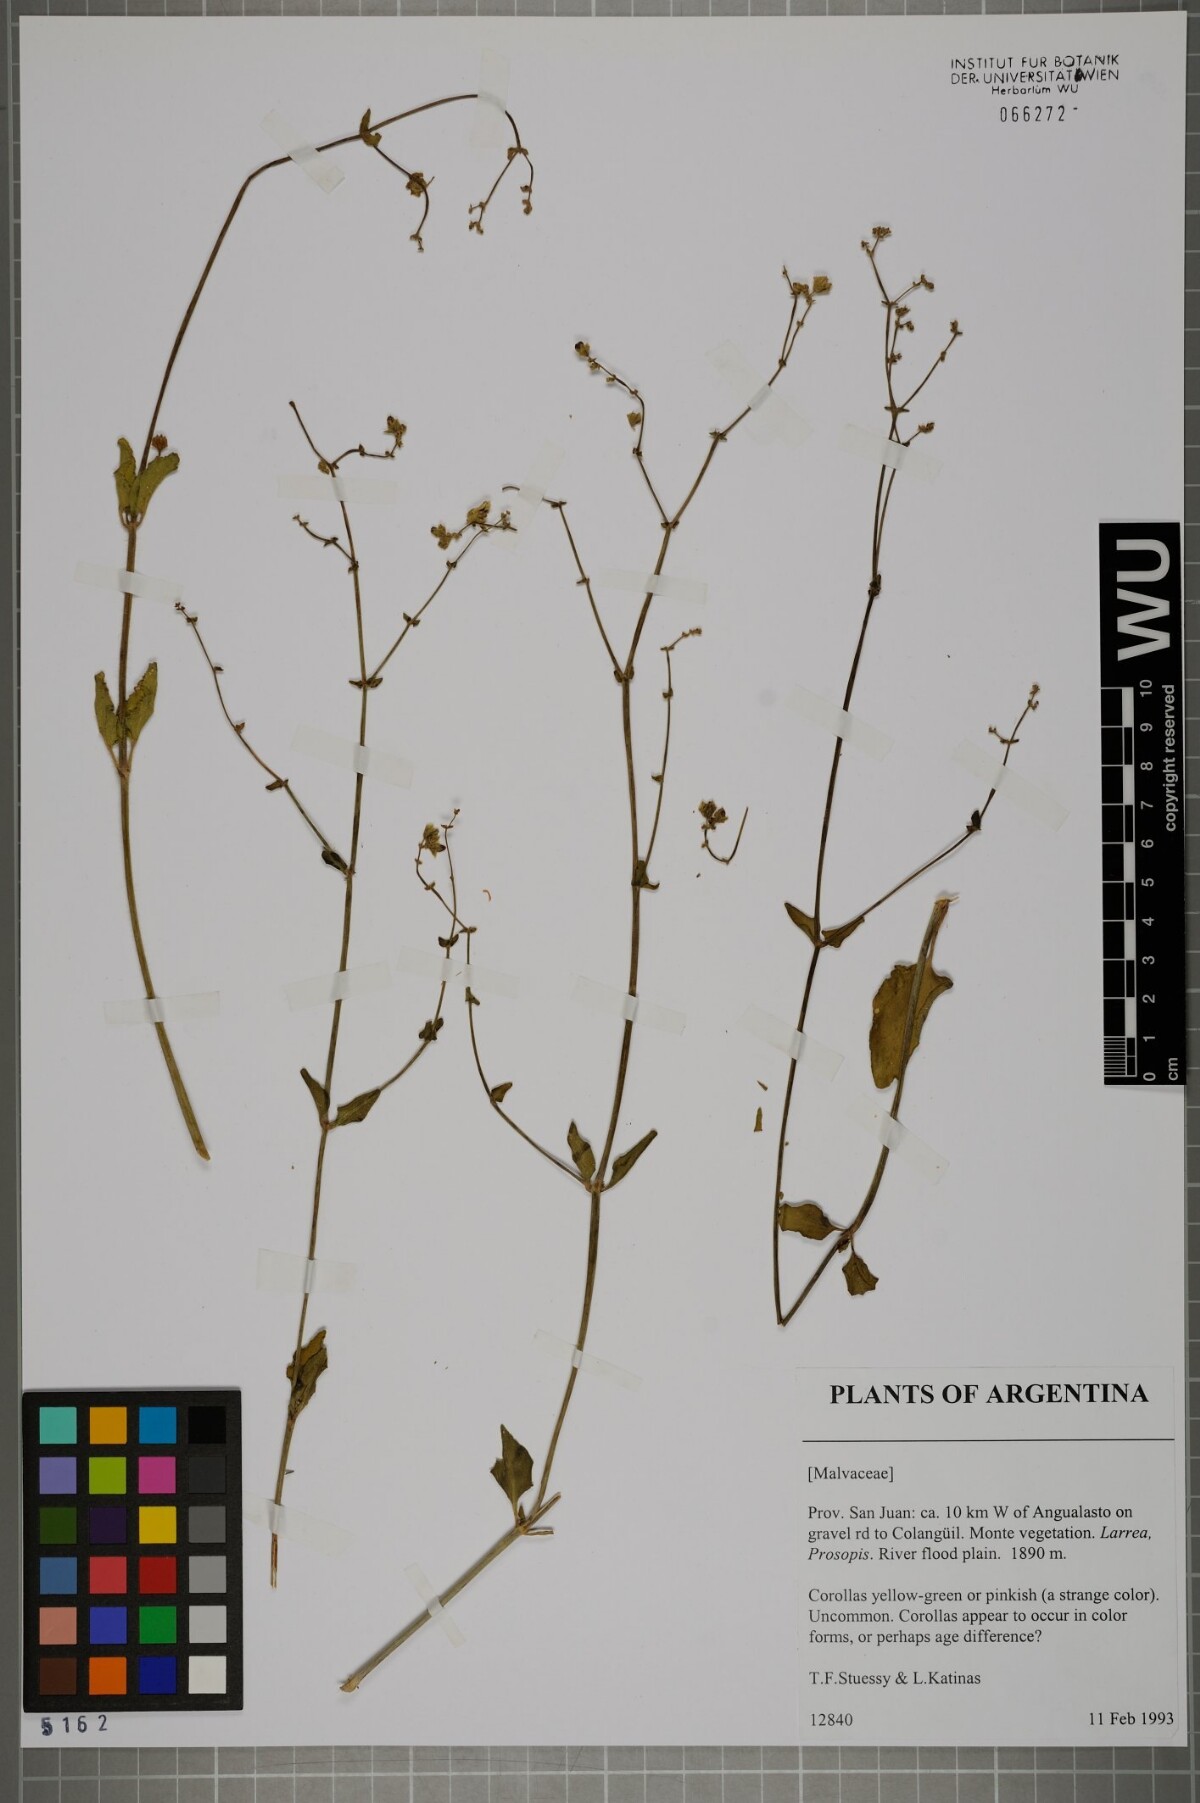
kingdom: Plantae
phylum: Tracheophyta
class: Magnoliopsida
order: Malvales
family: Malvaceae
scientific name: Malvaceae
